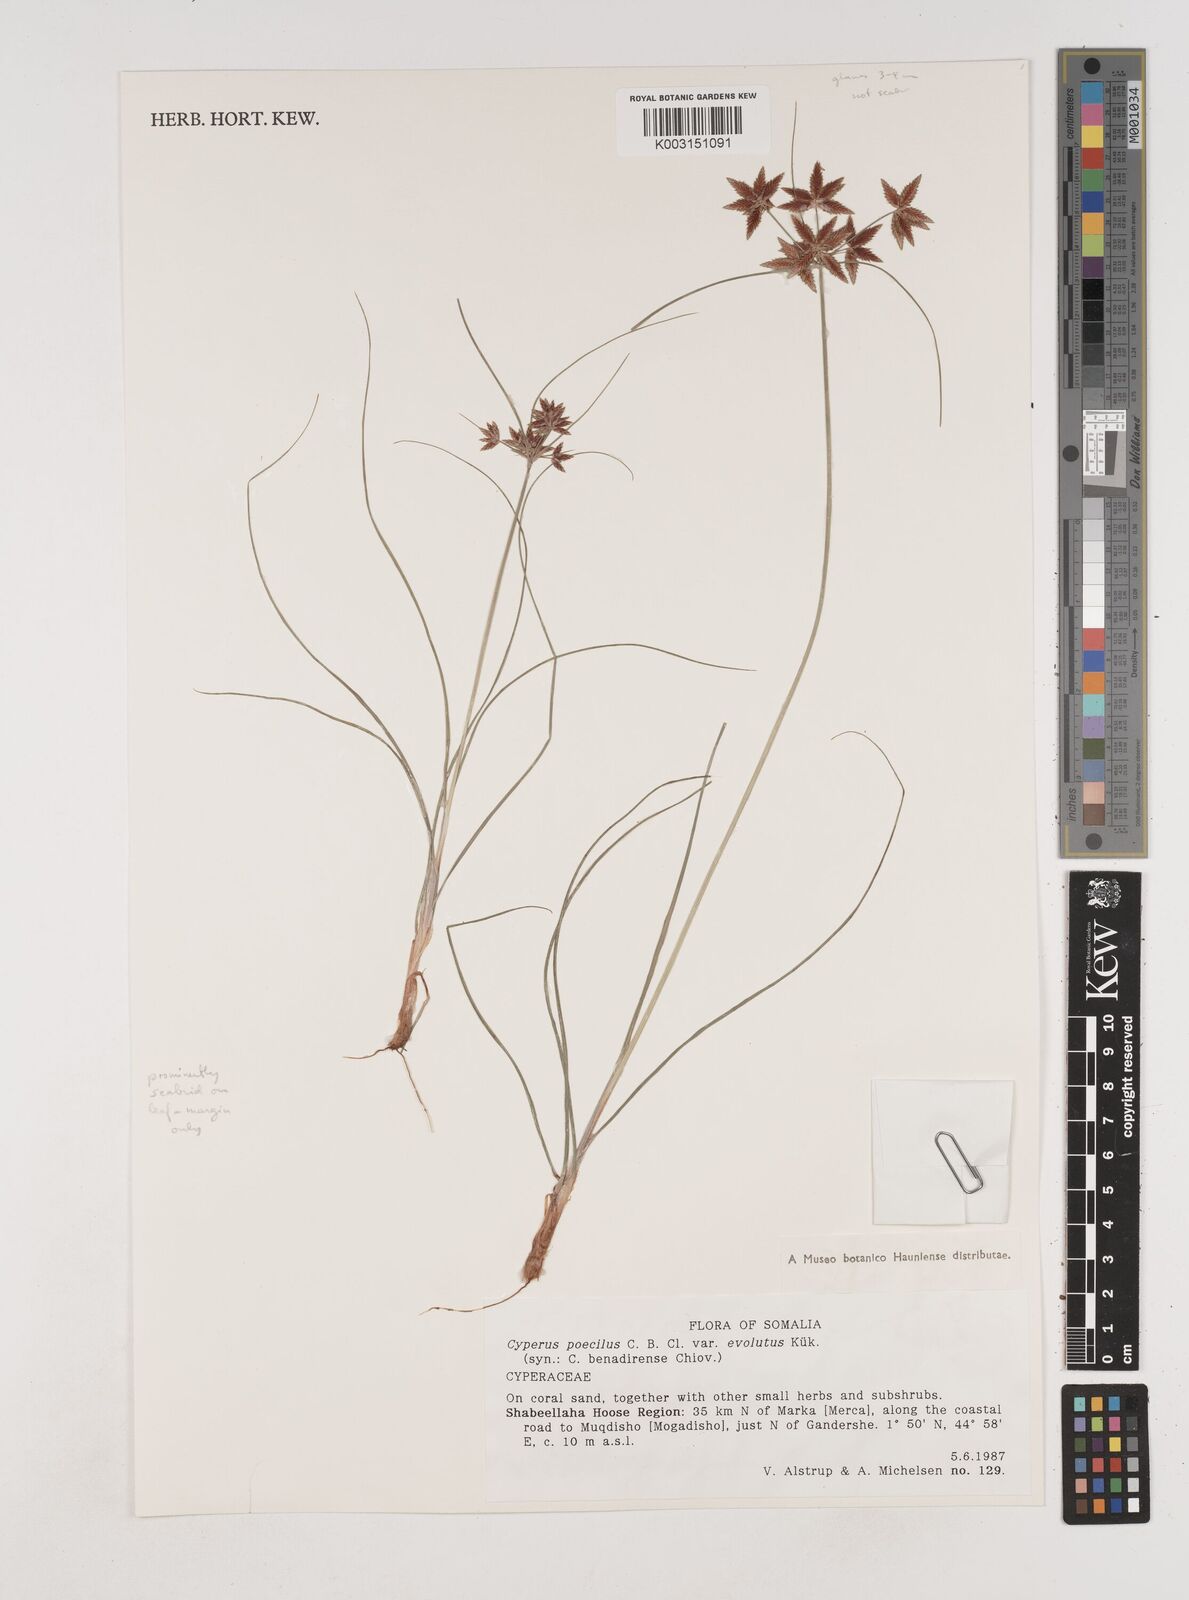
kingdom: Plantae
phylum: Tracheophyta
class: Liliopsida
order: Poales
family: Cyperaceae
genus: Cyperus
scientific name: Cyperus poecilus
